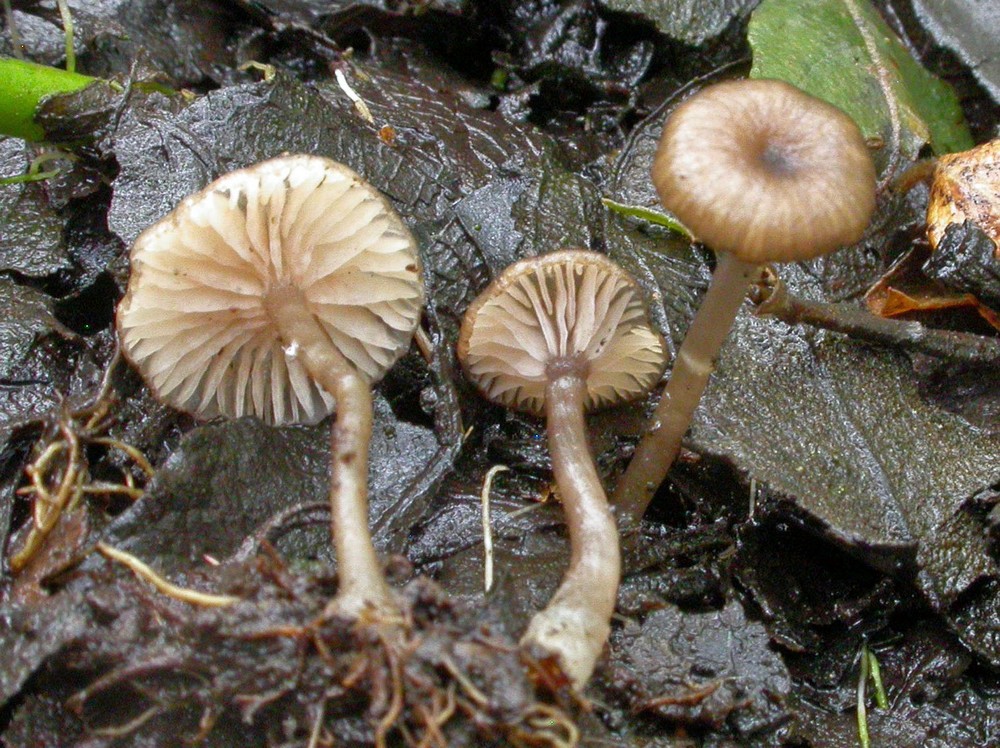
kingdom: Fungi
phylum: Basidiomycota
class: Agaricomycetes
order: Agaricales
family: Entolomataceae
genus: Entoloma
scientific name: Entoloma caccabus
